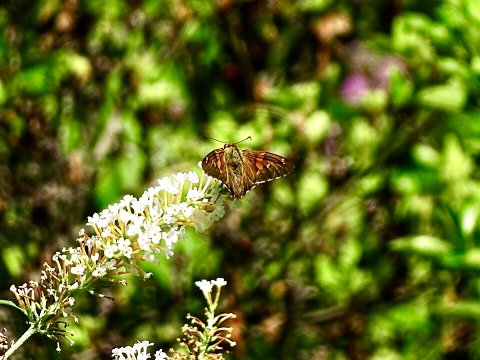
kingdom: Animalia
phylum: Arthropoda
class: Insecta
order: Lepidoptera
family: Hesperiidae
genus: Epargyreus
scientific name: Epargyreus clarus
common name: Silver-spotted Skipper
